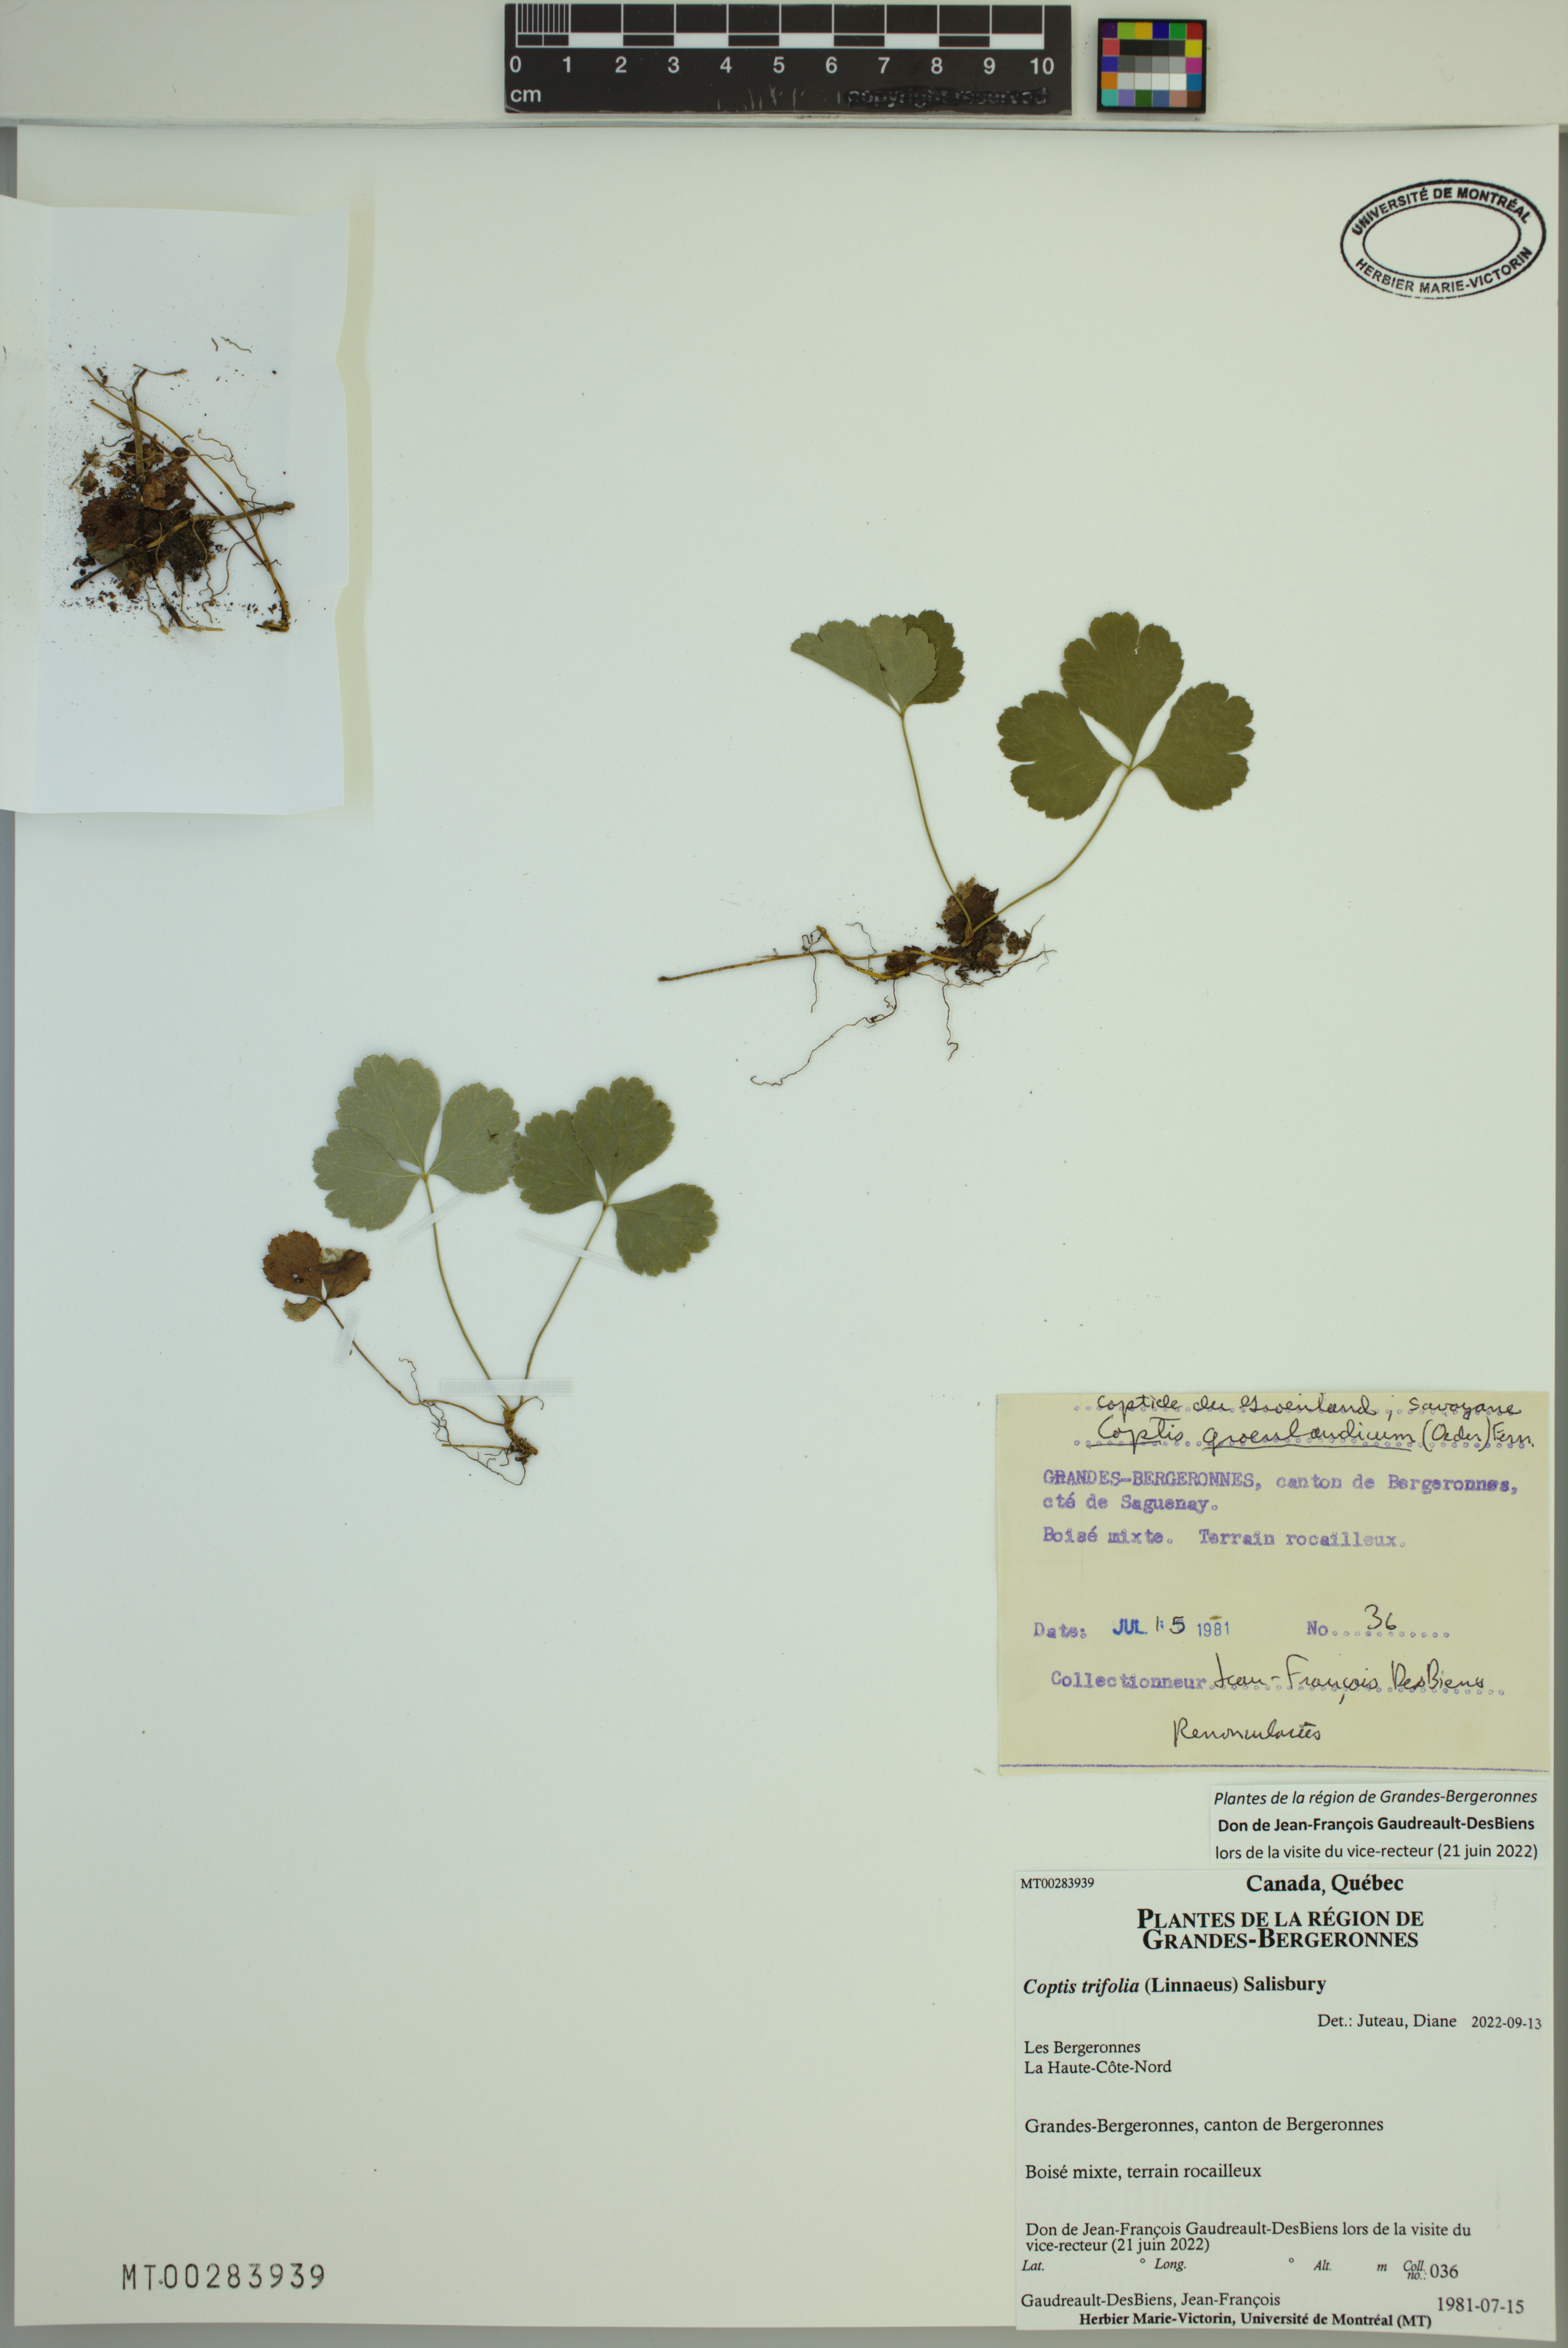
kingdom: Plantae
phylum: Tracheophyta
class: Magnoliopsida
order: Ranunculales
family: Ranunculaceae
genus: Coptis
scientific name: Coptis trifolia
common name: Canker-root
